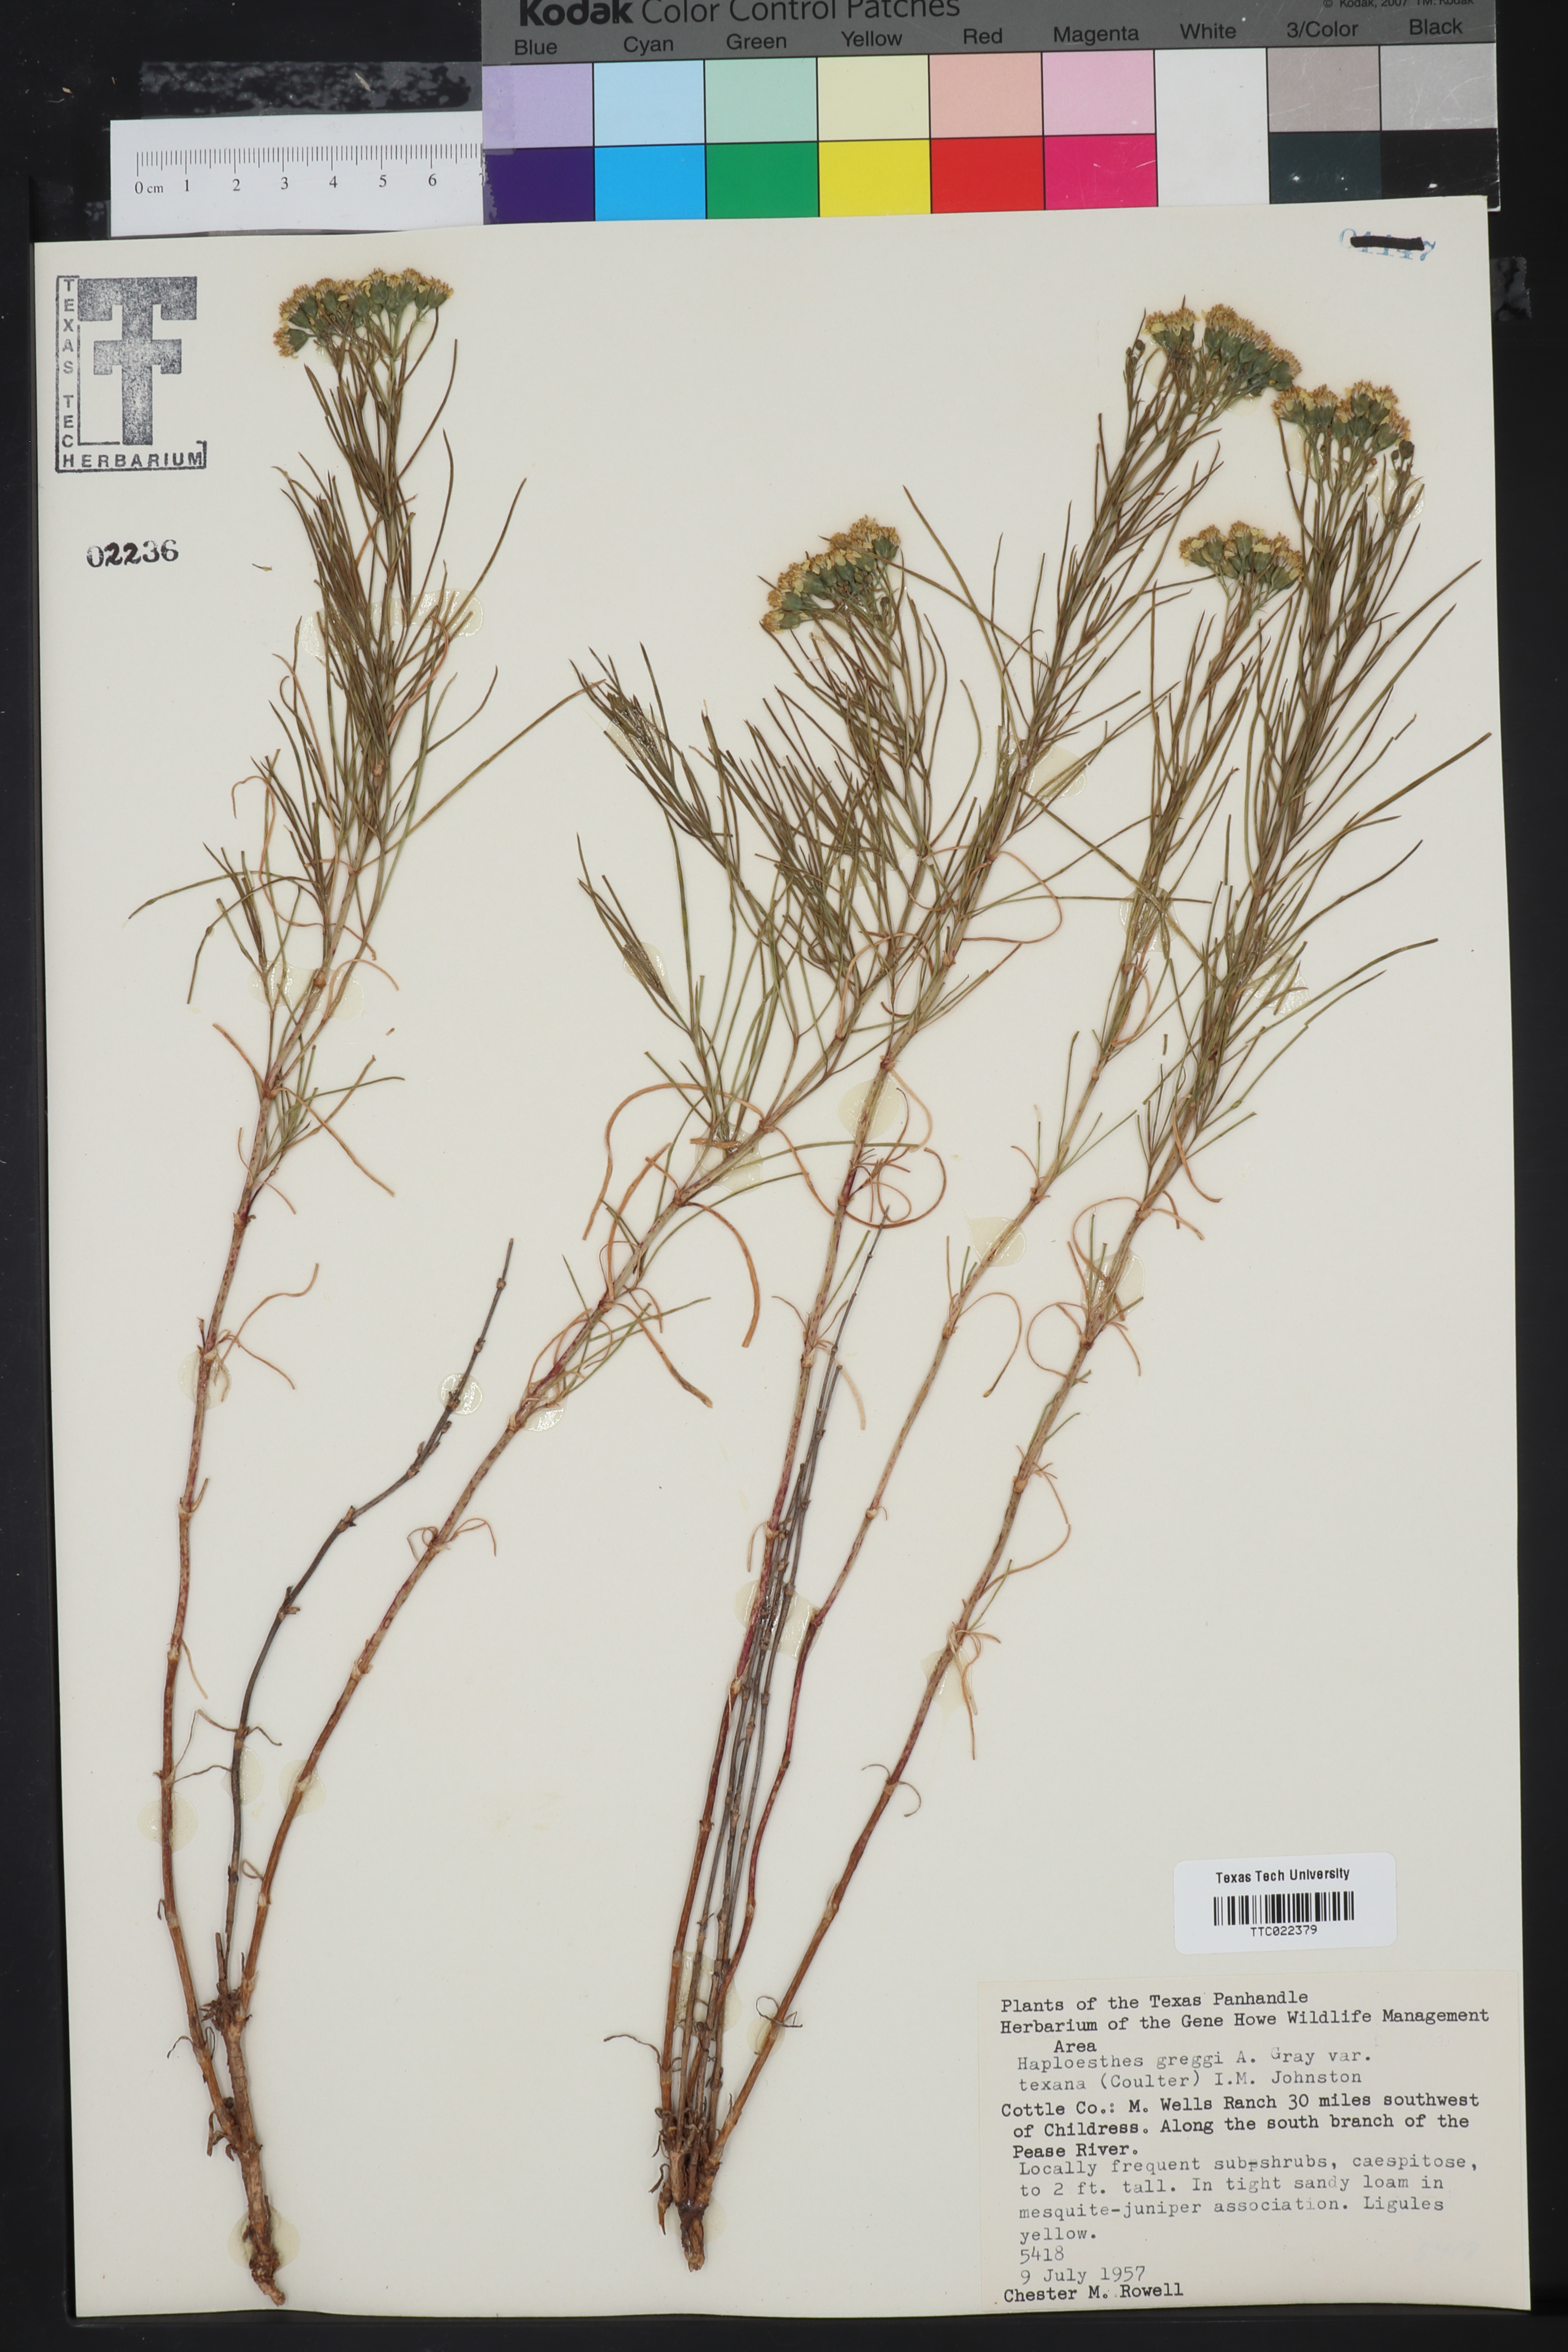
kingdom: Plantae
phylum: Tracheophyta
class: Magnoliopsida
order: Asterales
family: Asteraceae
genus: Haploesthes
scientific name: Haploesthes greggii
